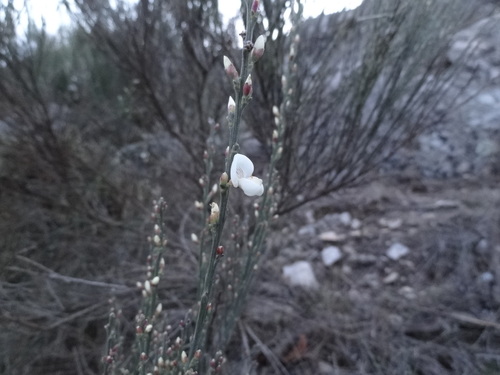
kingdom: Plantae
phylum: Tracheophyta
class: Magnoliopsida
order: Fabales
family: Fabaceae
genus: Cytisus
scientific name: Cytisus multiflorus
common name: White broom
